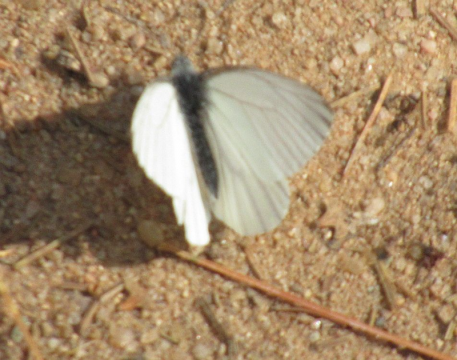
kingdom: Animalia
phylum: Arthropoda
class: Insecta
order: Lepidoptera
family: Pieridae
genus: Pieris
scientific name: Pieris oleracea
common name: Mustard White
